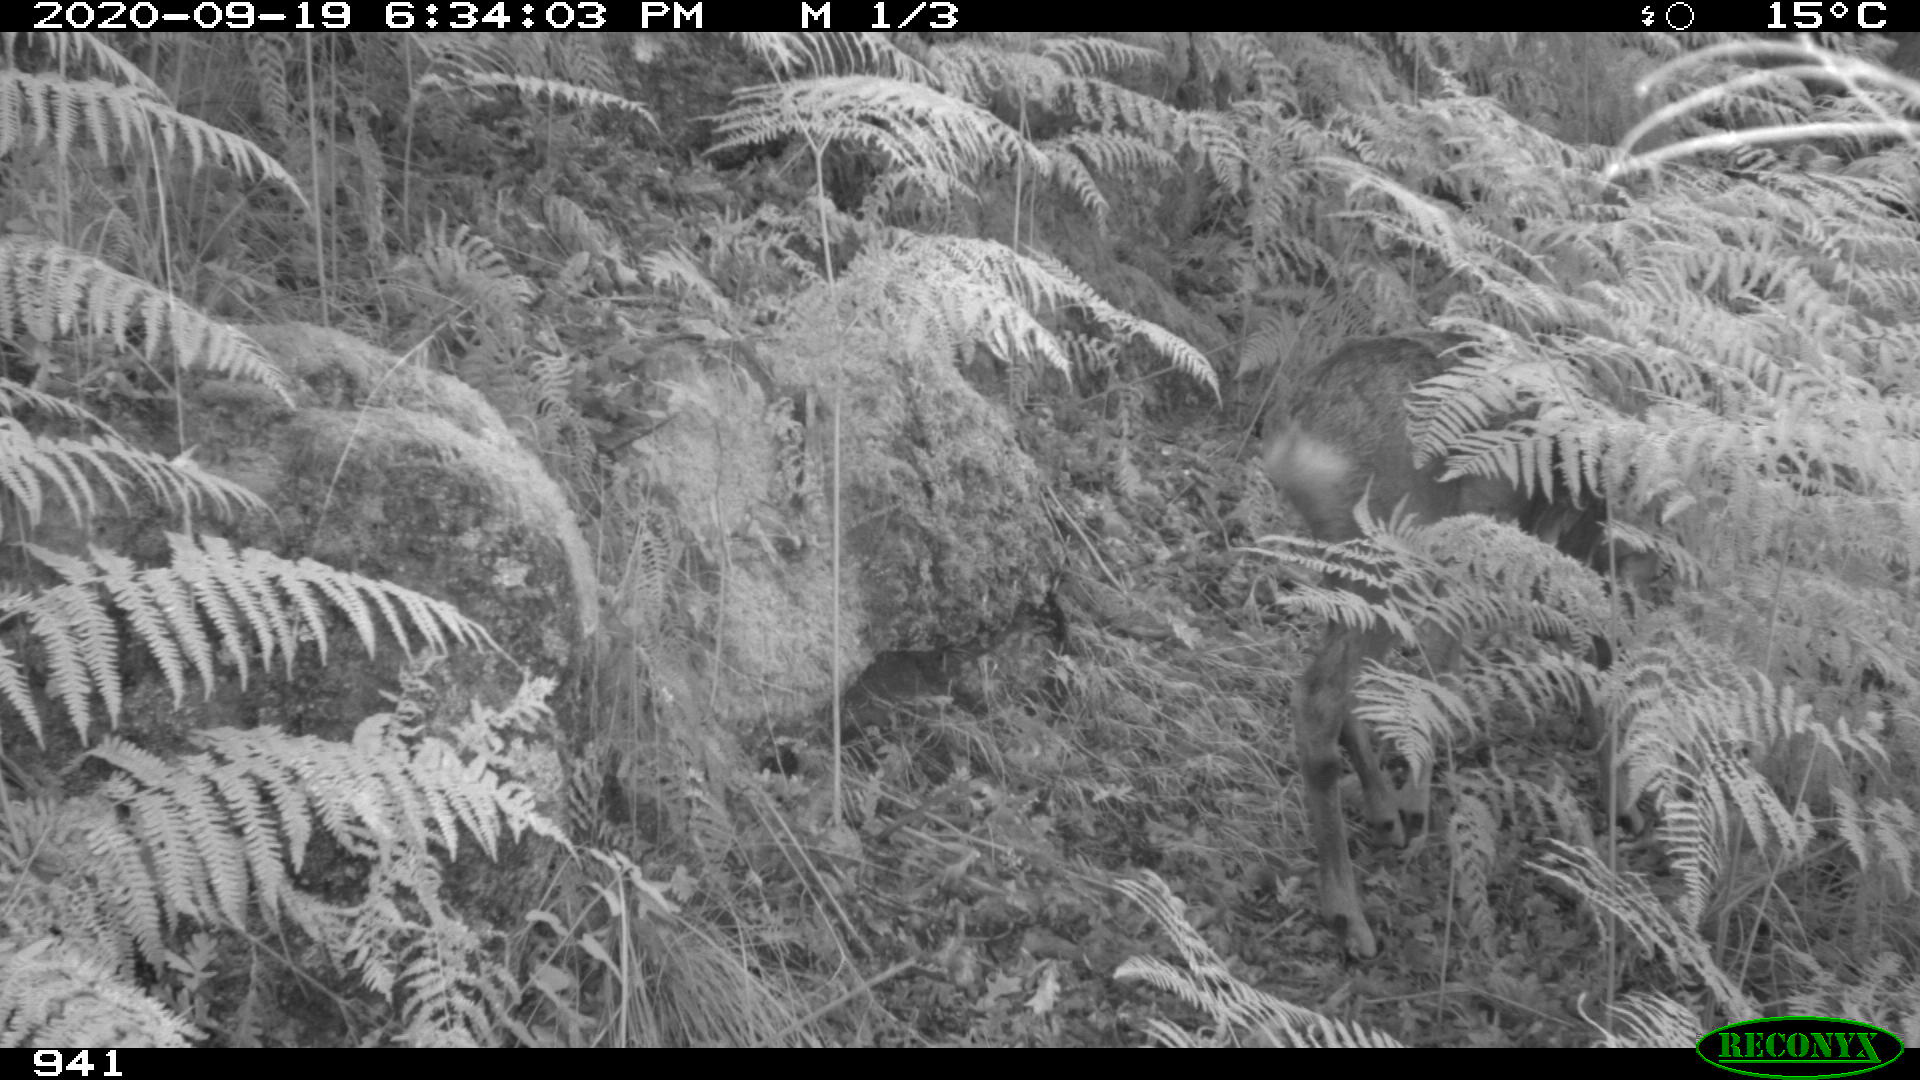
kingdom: Animalia
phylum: Chordata
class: Mammalia
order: Artiodactyla
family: Cervidae
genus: Capreolus
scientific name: Capreolus capreolus
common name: Western roe deer
